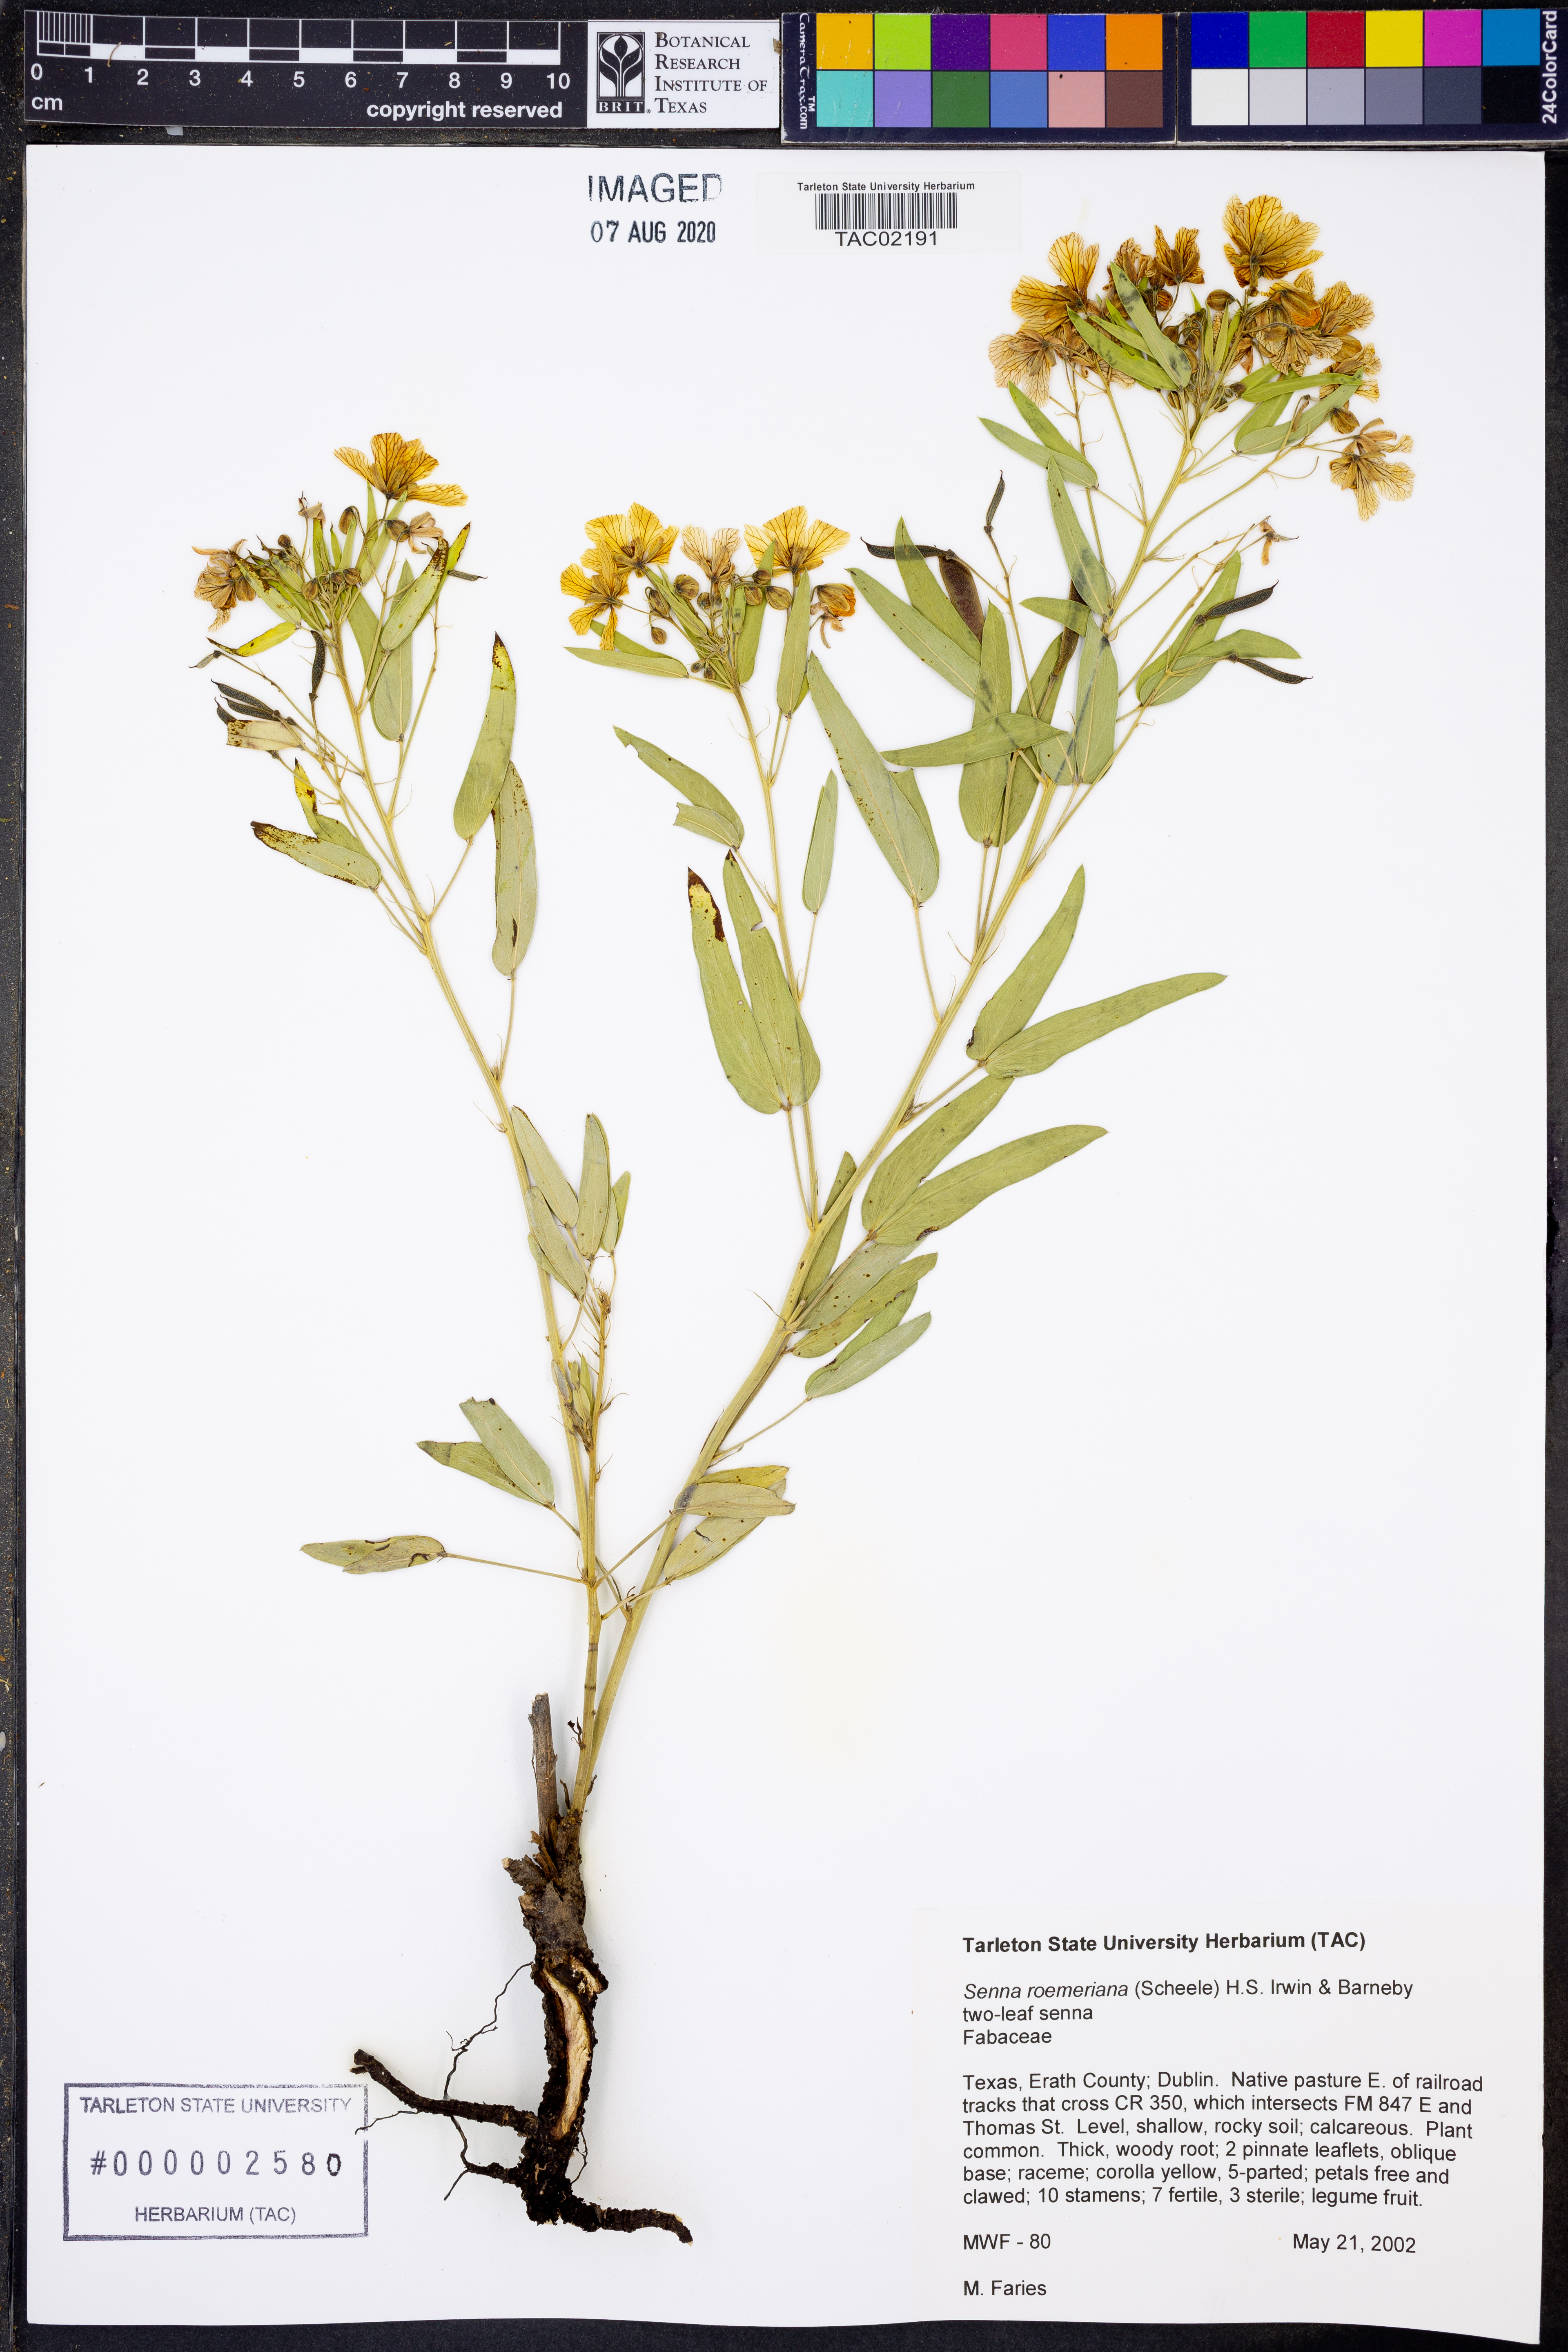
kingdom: Plantae
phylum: Tracheophyta
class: Magnoliopsida
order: Fabales
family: Fabaceae
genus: Senna
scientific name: Senna roemeriana
